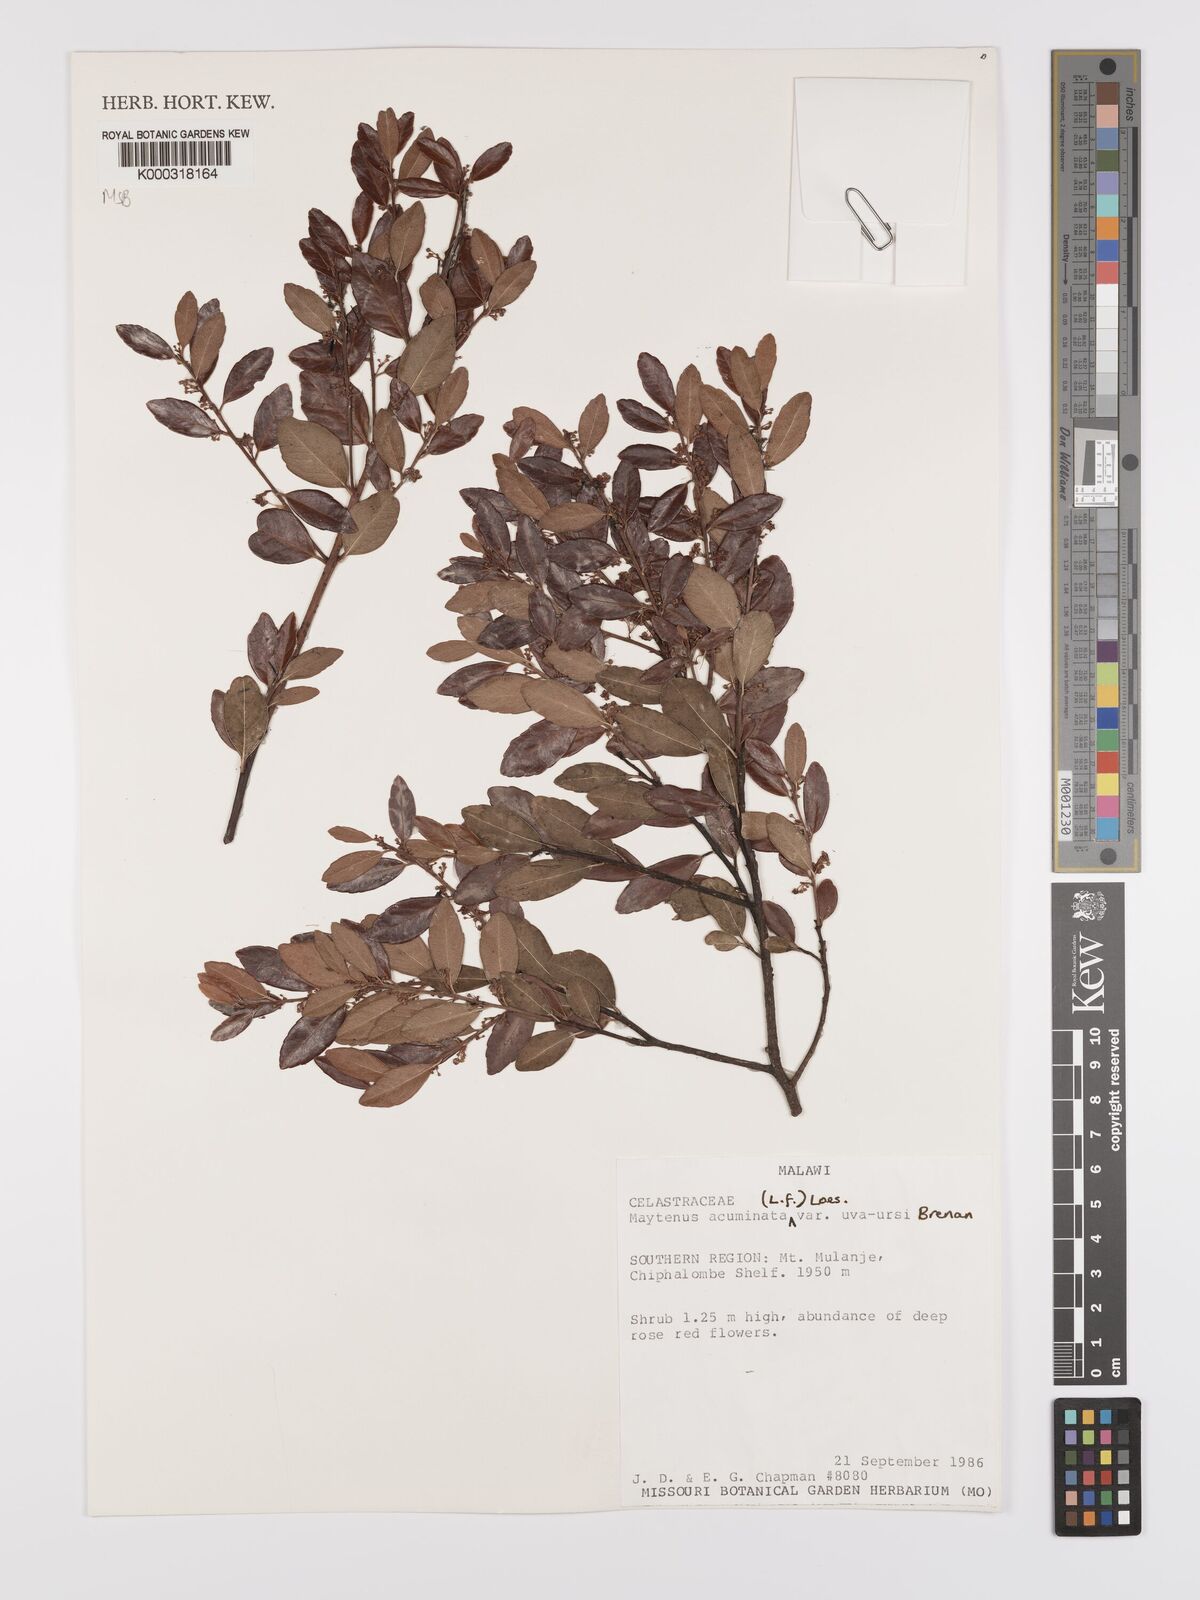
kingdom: Plantae
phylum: Tracheophyta
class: Magnoliopsida
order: Celastrales
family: Celastraceae
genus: Maytenus
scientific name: Maytenus
